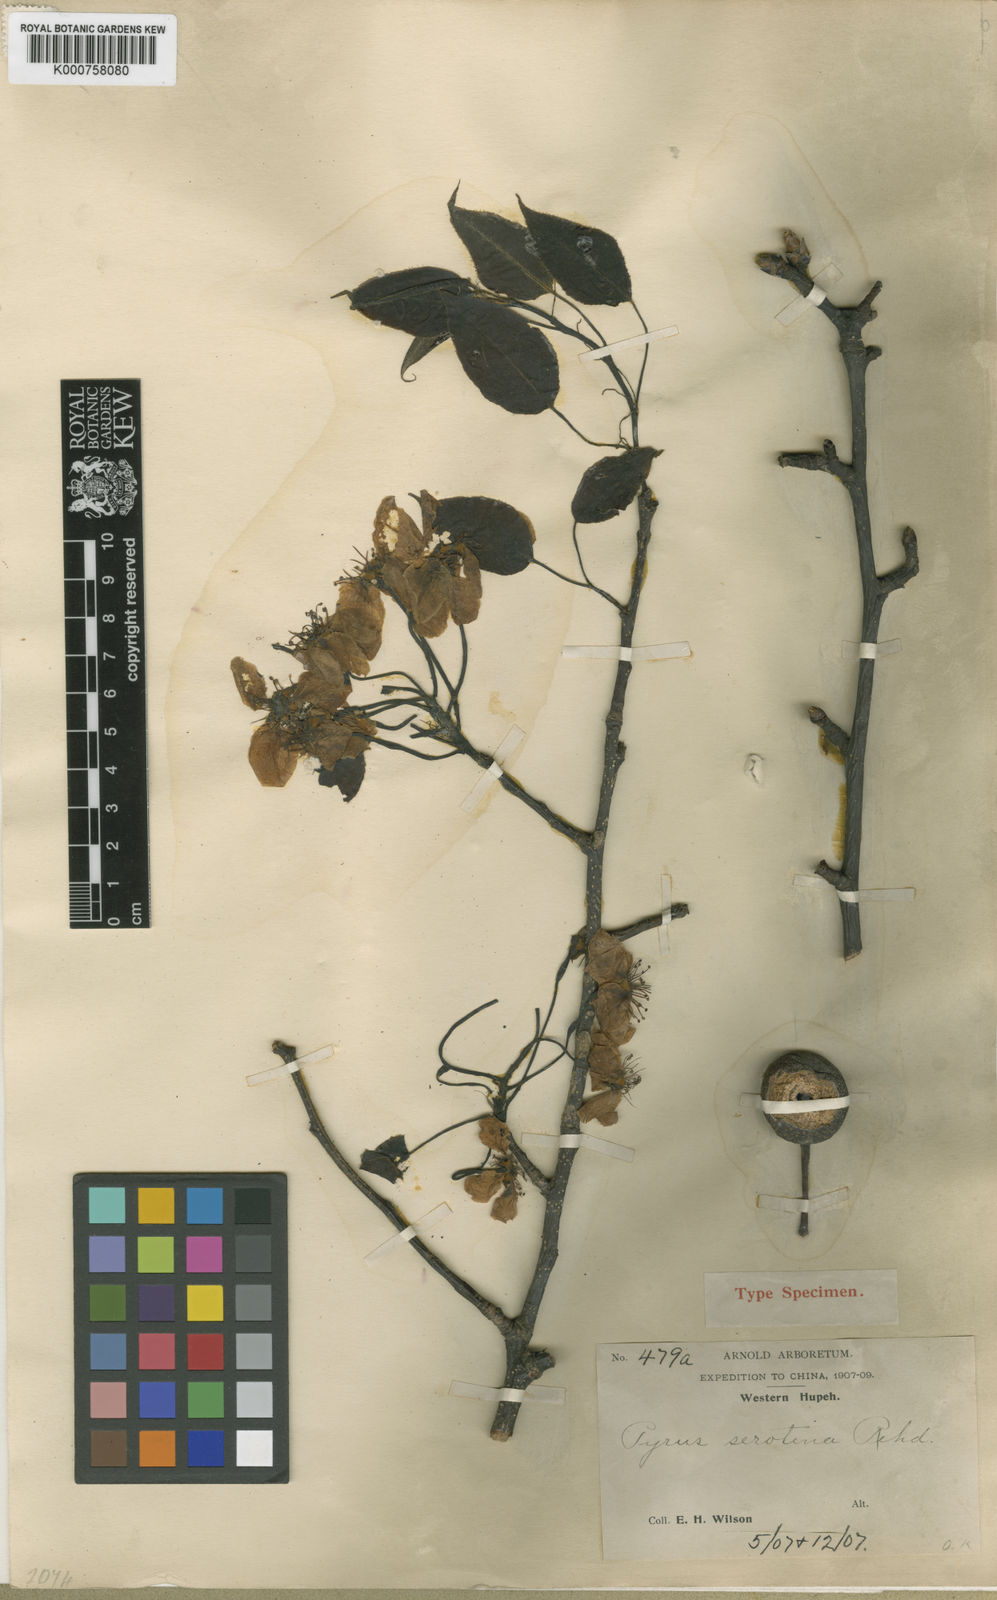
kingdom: Plantae
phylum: Tracheophyta
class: Magnoliopsida
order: Rosales
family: Rosaceae
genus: Pyrus
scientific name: Pyrus pyrifolia
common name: Chinese pear
